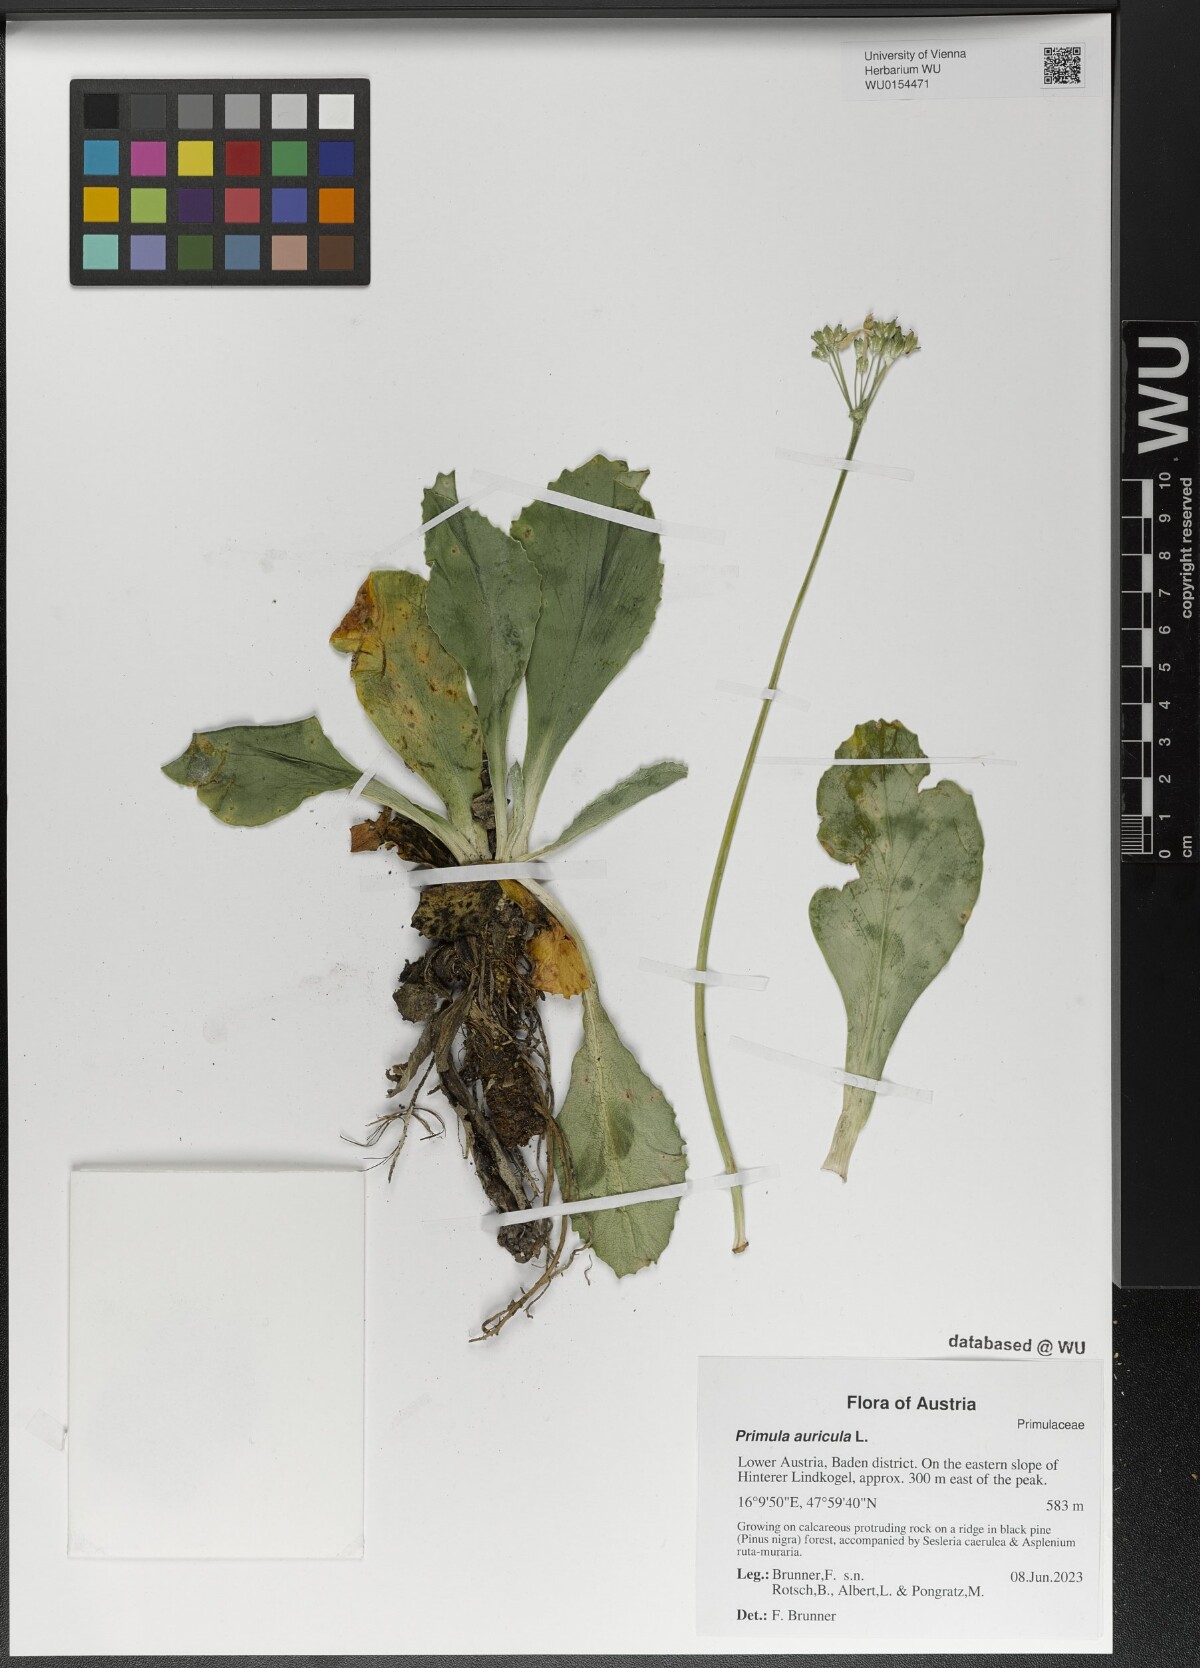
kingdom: Plantae
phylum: Tracheophyta
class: Magnoliopsida
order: Ericales
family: Primulaceae
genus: Primula
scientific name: Primula auricula
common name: Auricula
